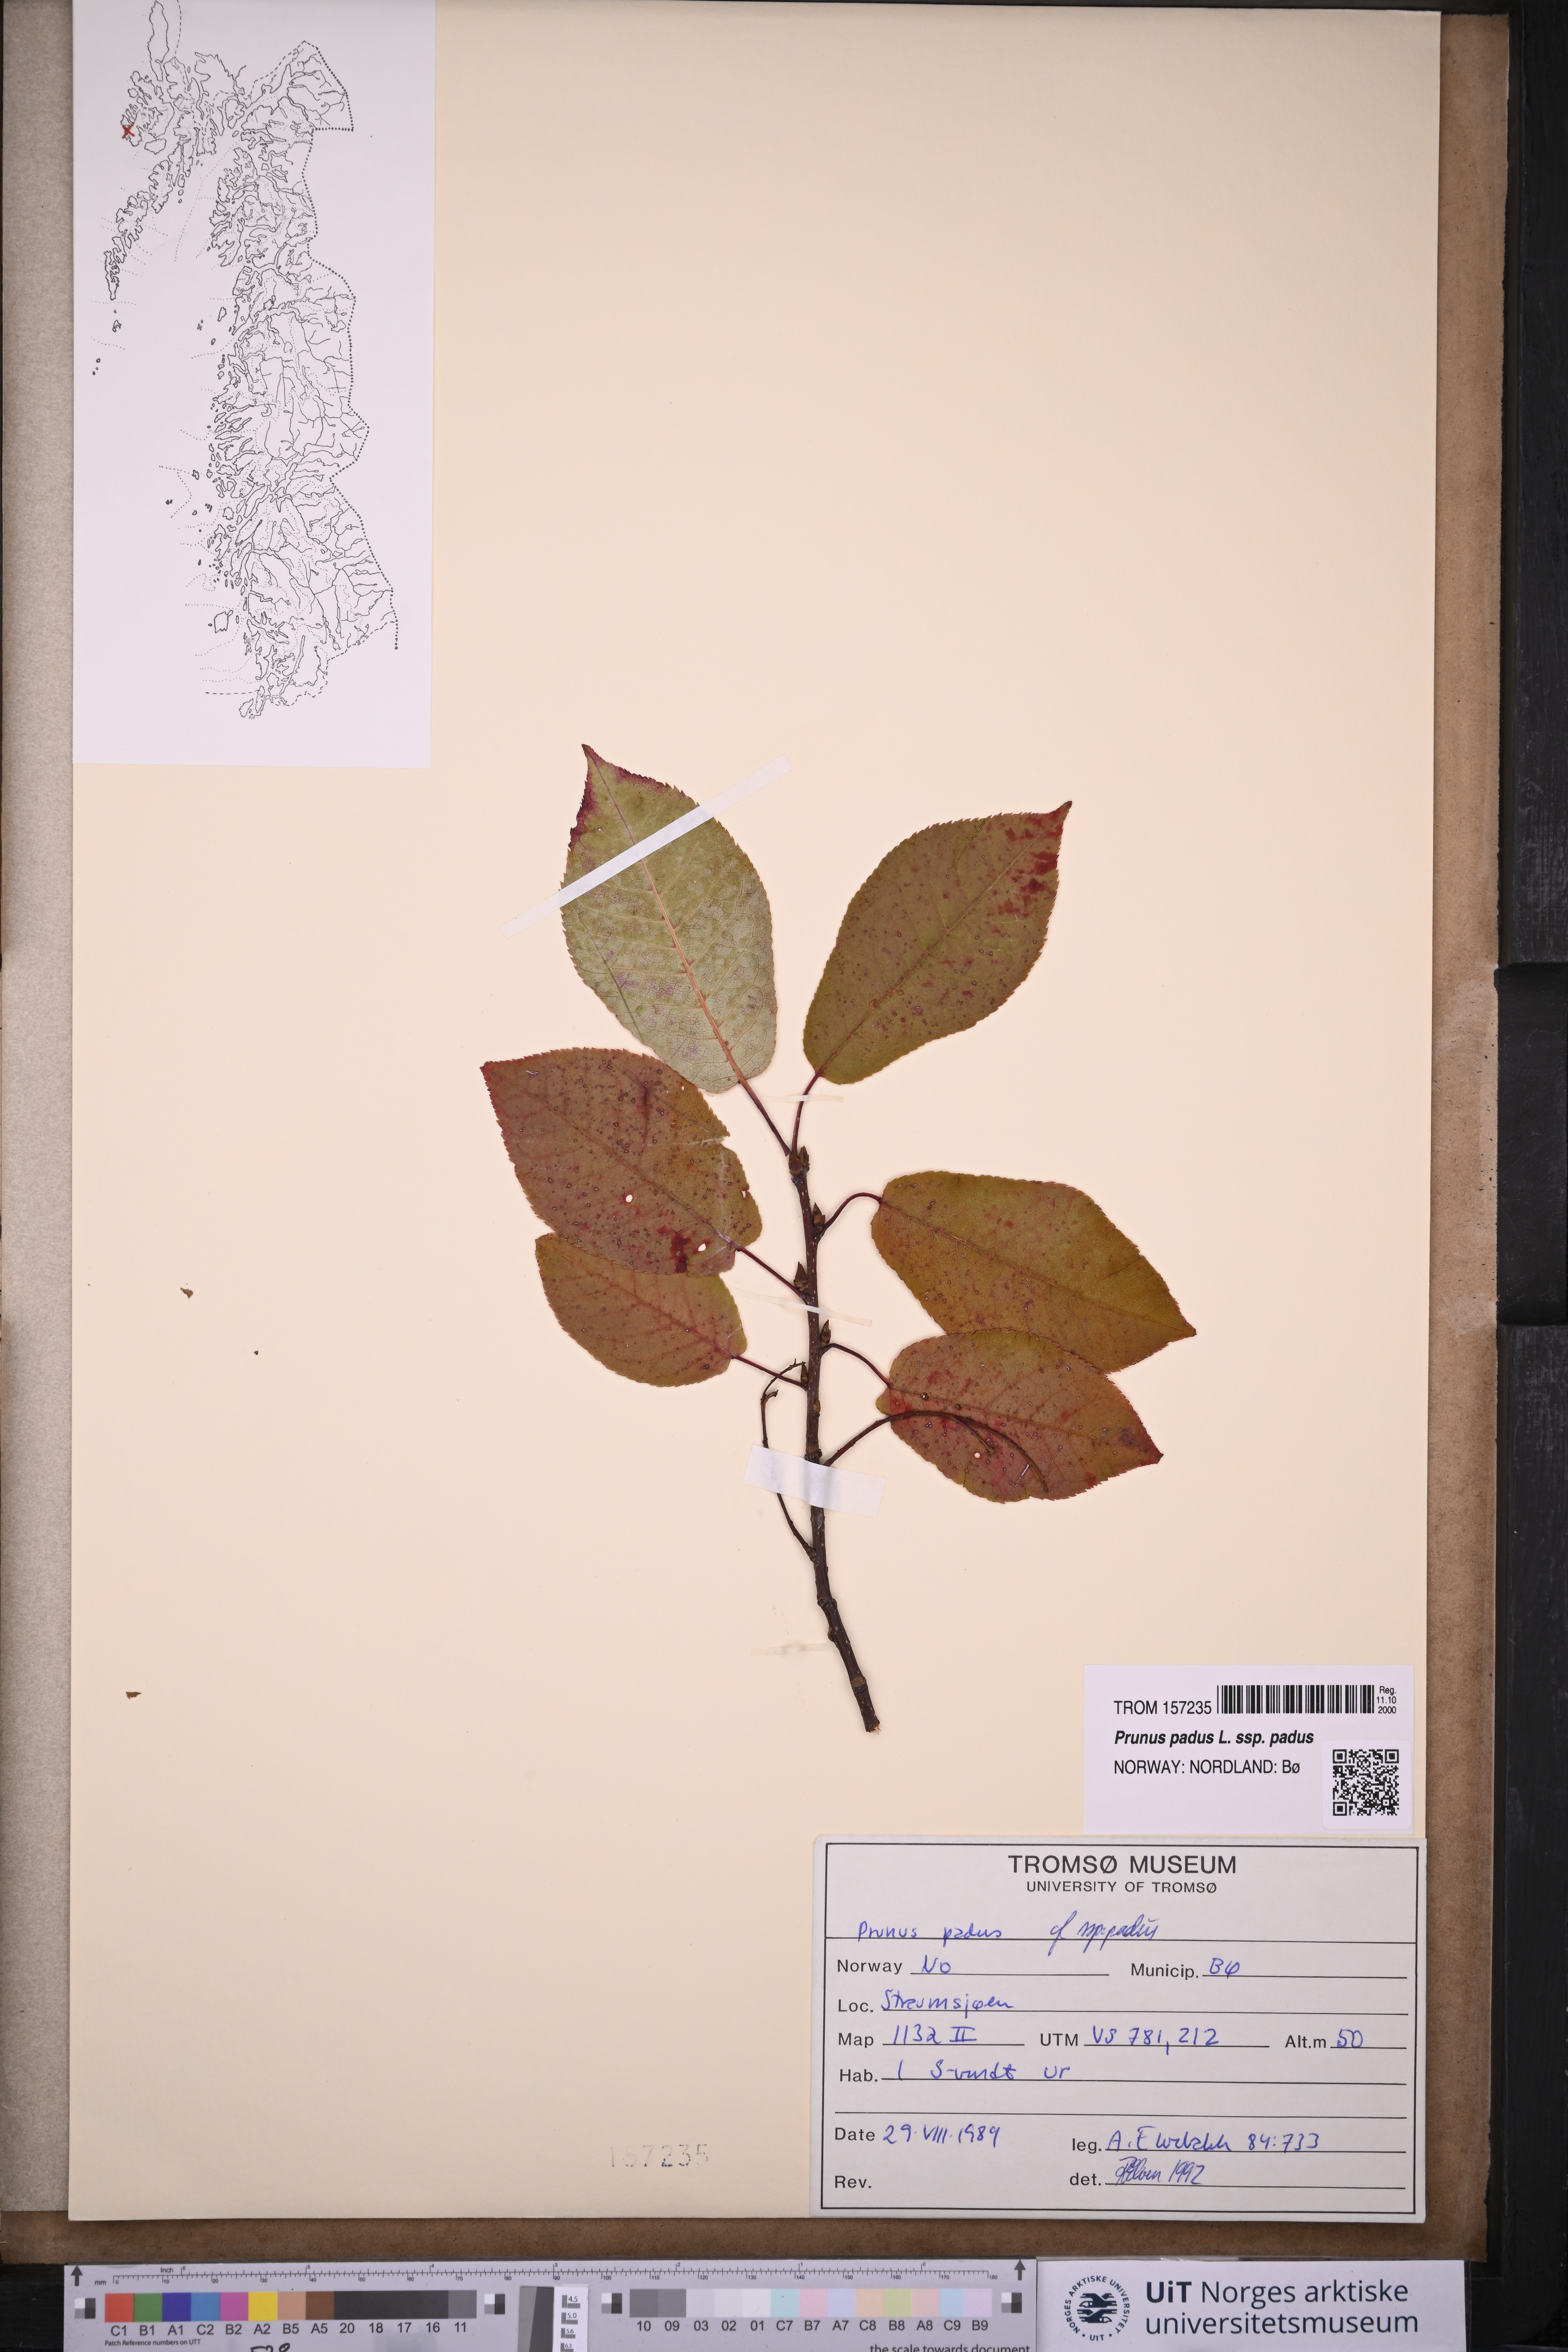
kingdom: Plantae
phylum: Tracheophyta
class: Magnoliopsida
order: Rosales
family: Rosaceae
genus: Prunus
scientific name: Prunus padus
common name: Bird cherry
